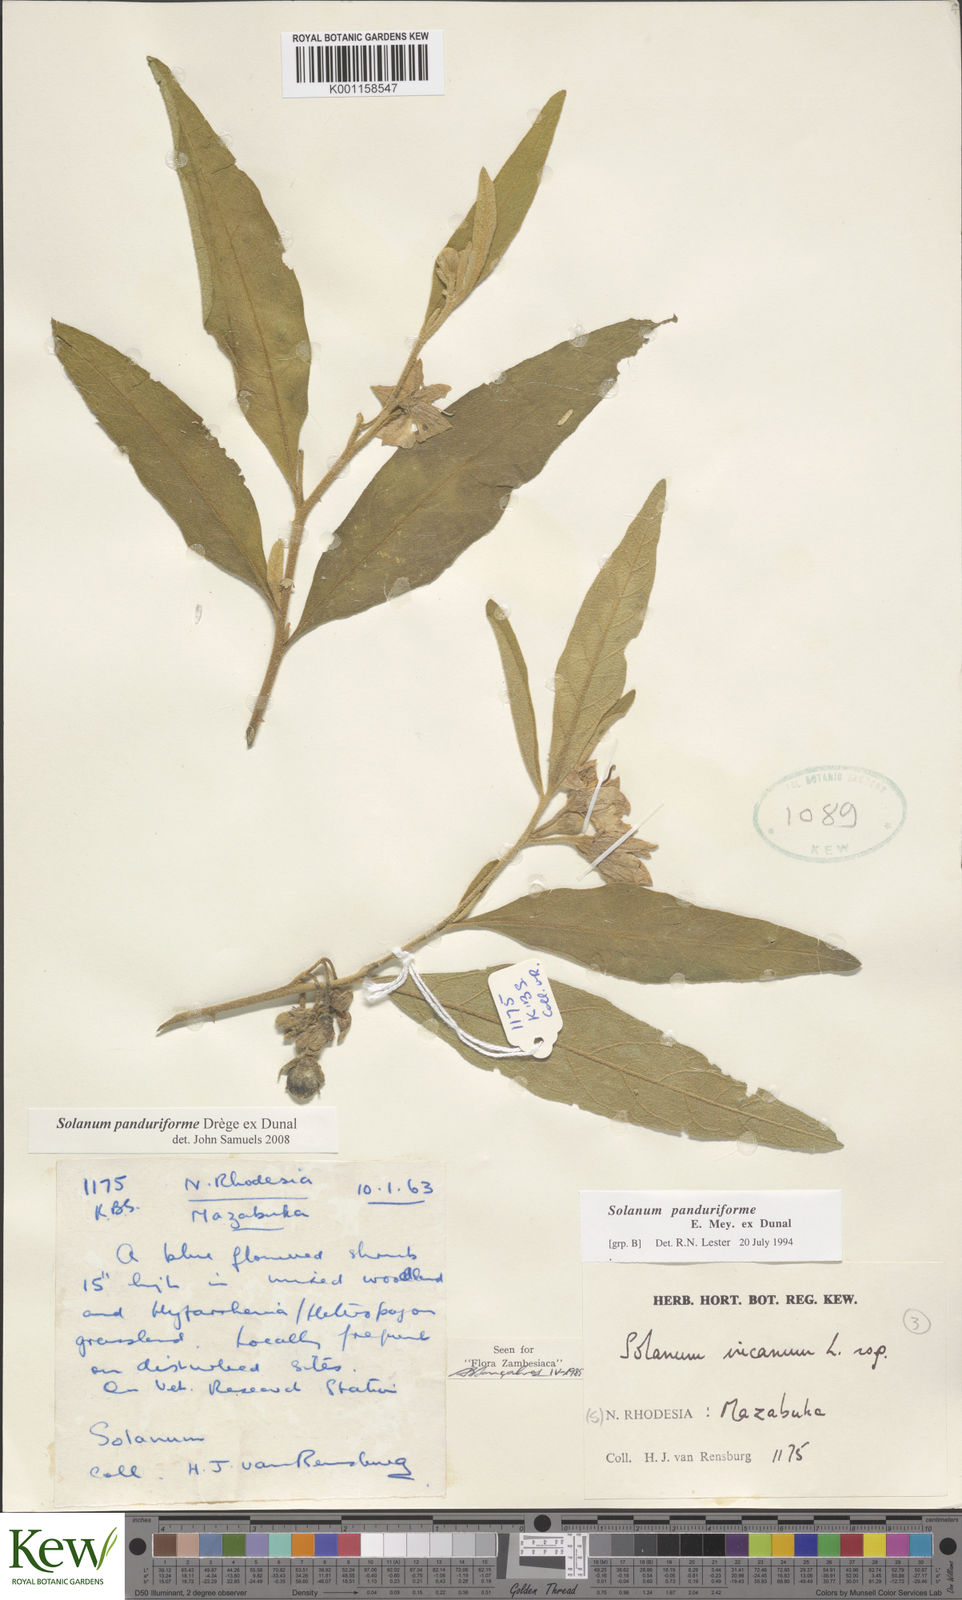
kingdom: Plantae
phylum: Tracheophyta
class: Magnoliopsida
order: Solanales
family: Solanaceae
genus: Solanum
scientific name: Solanum campylacanthum
